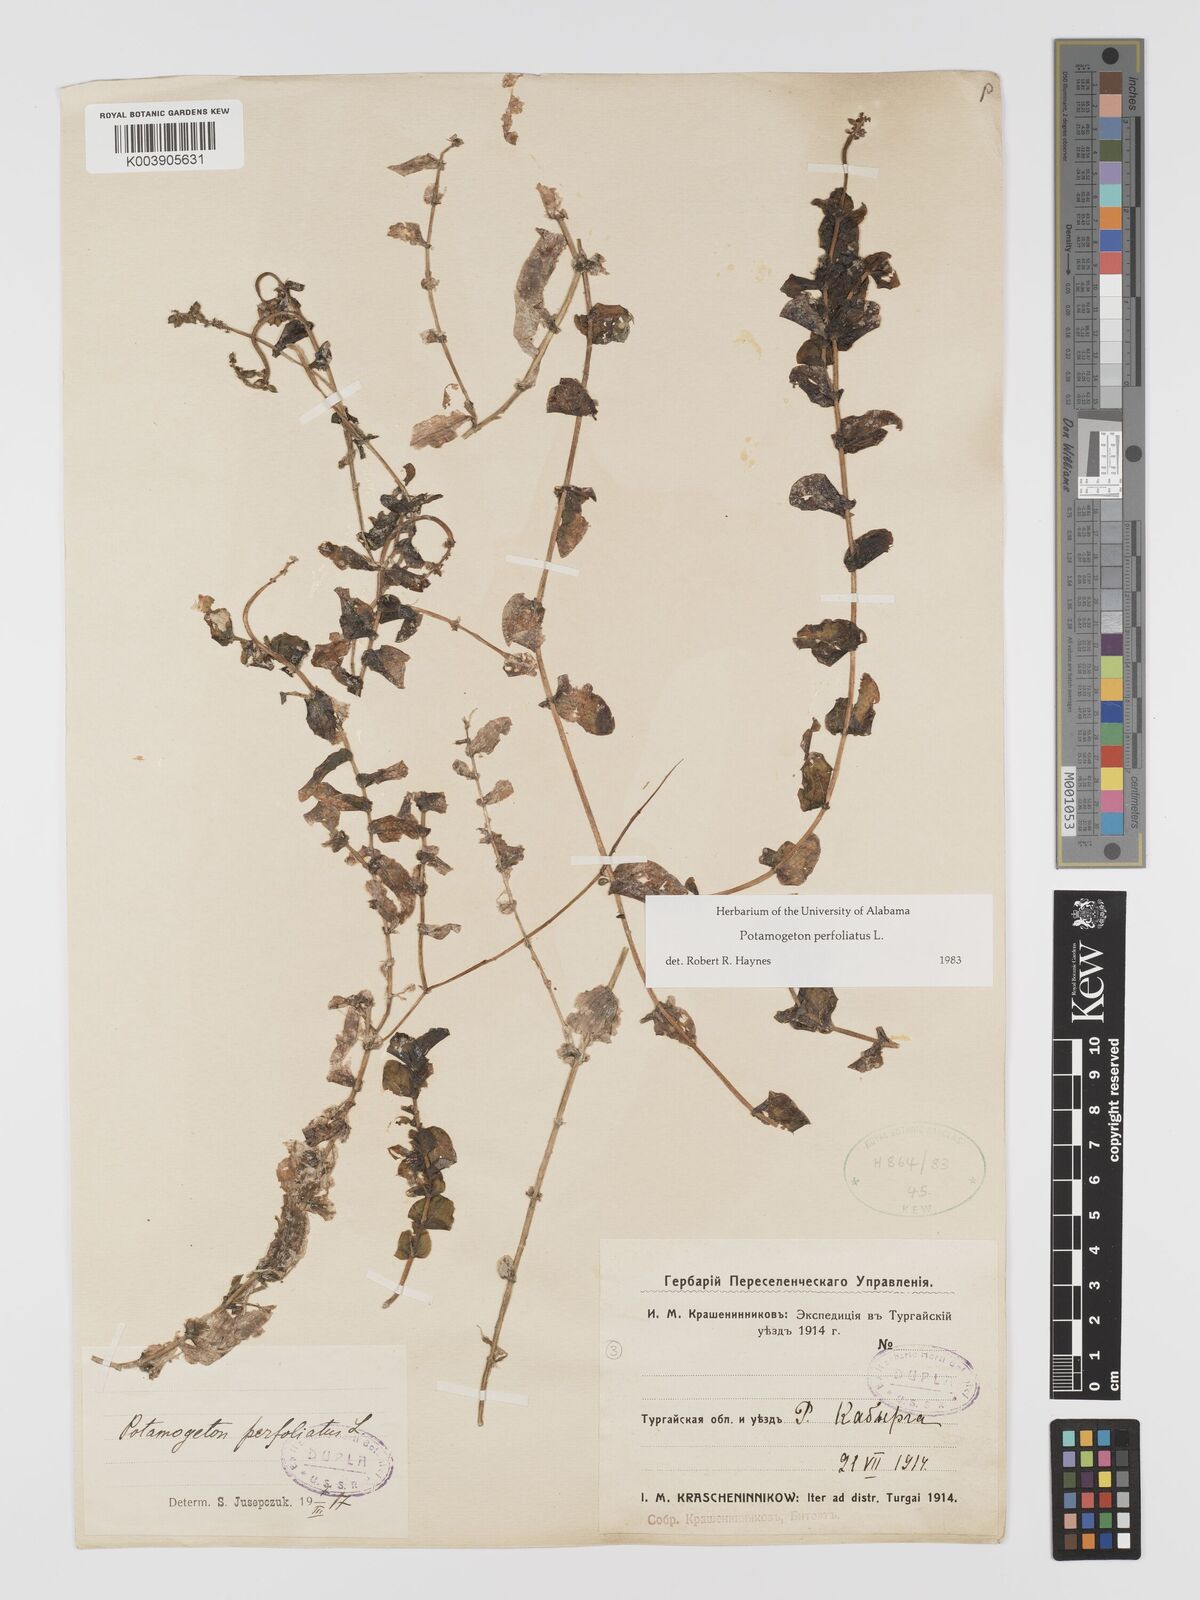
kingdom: Plantae
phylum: Tracheophyta
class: Liliopsida
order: Alismatales
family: Potamogetonaceae
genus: Potamogeton
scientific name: Potamogeton perfoliatus
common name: Perfoliate pondweed
